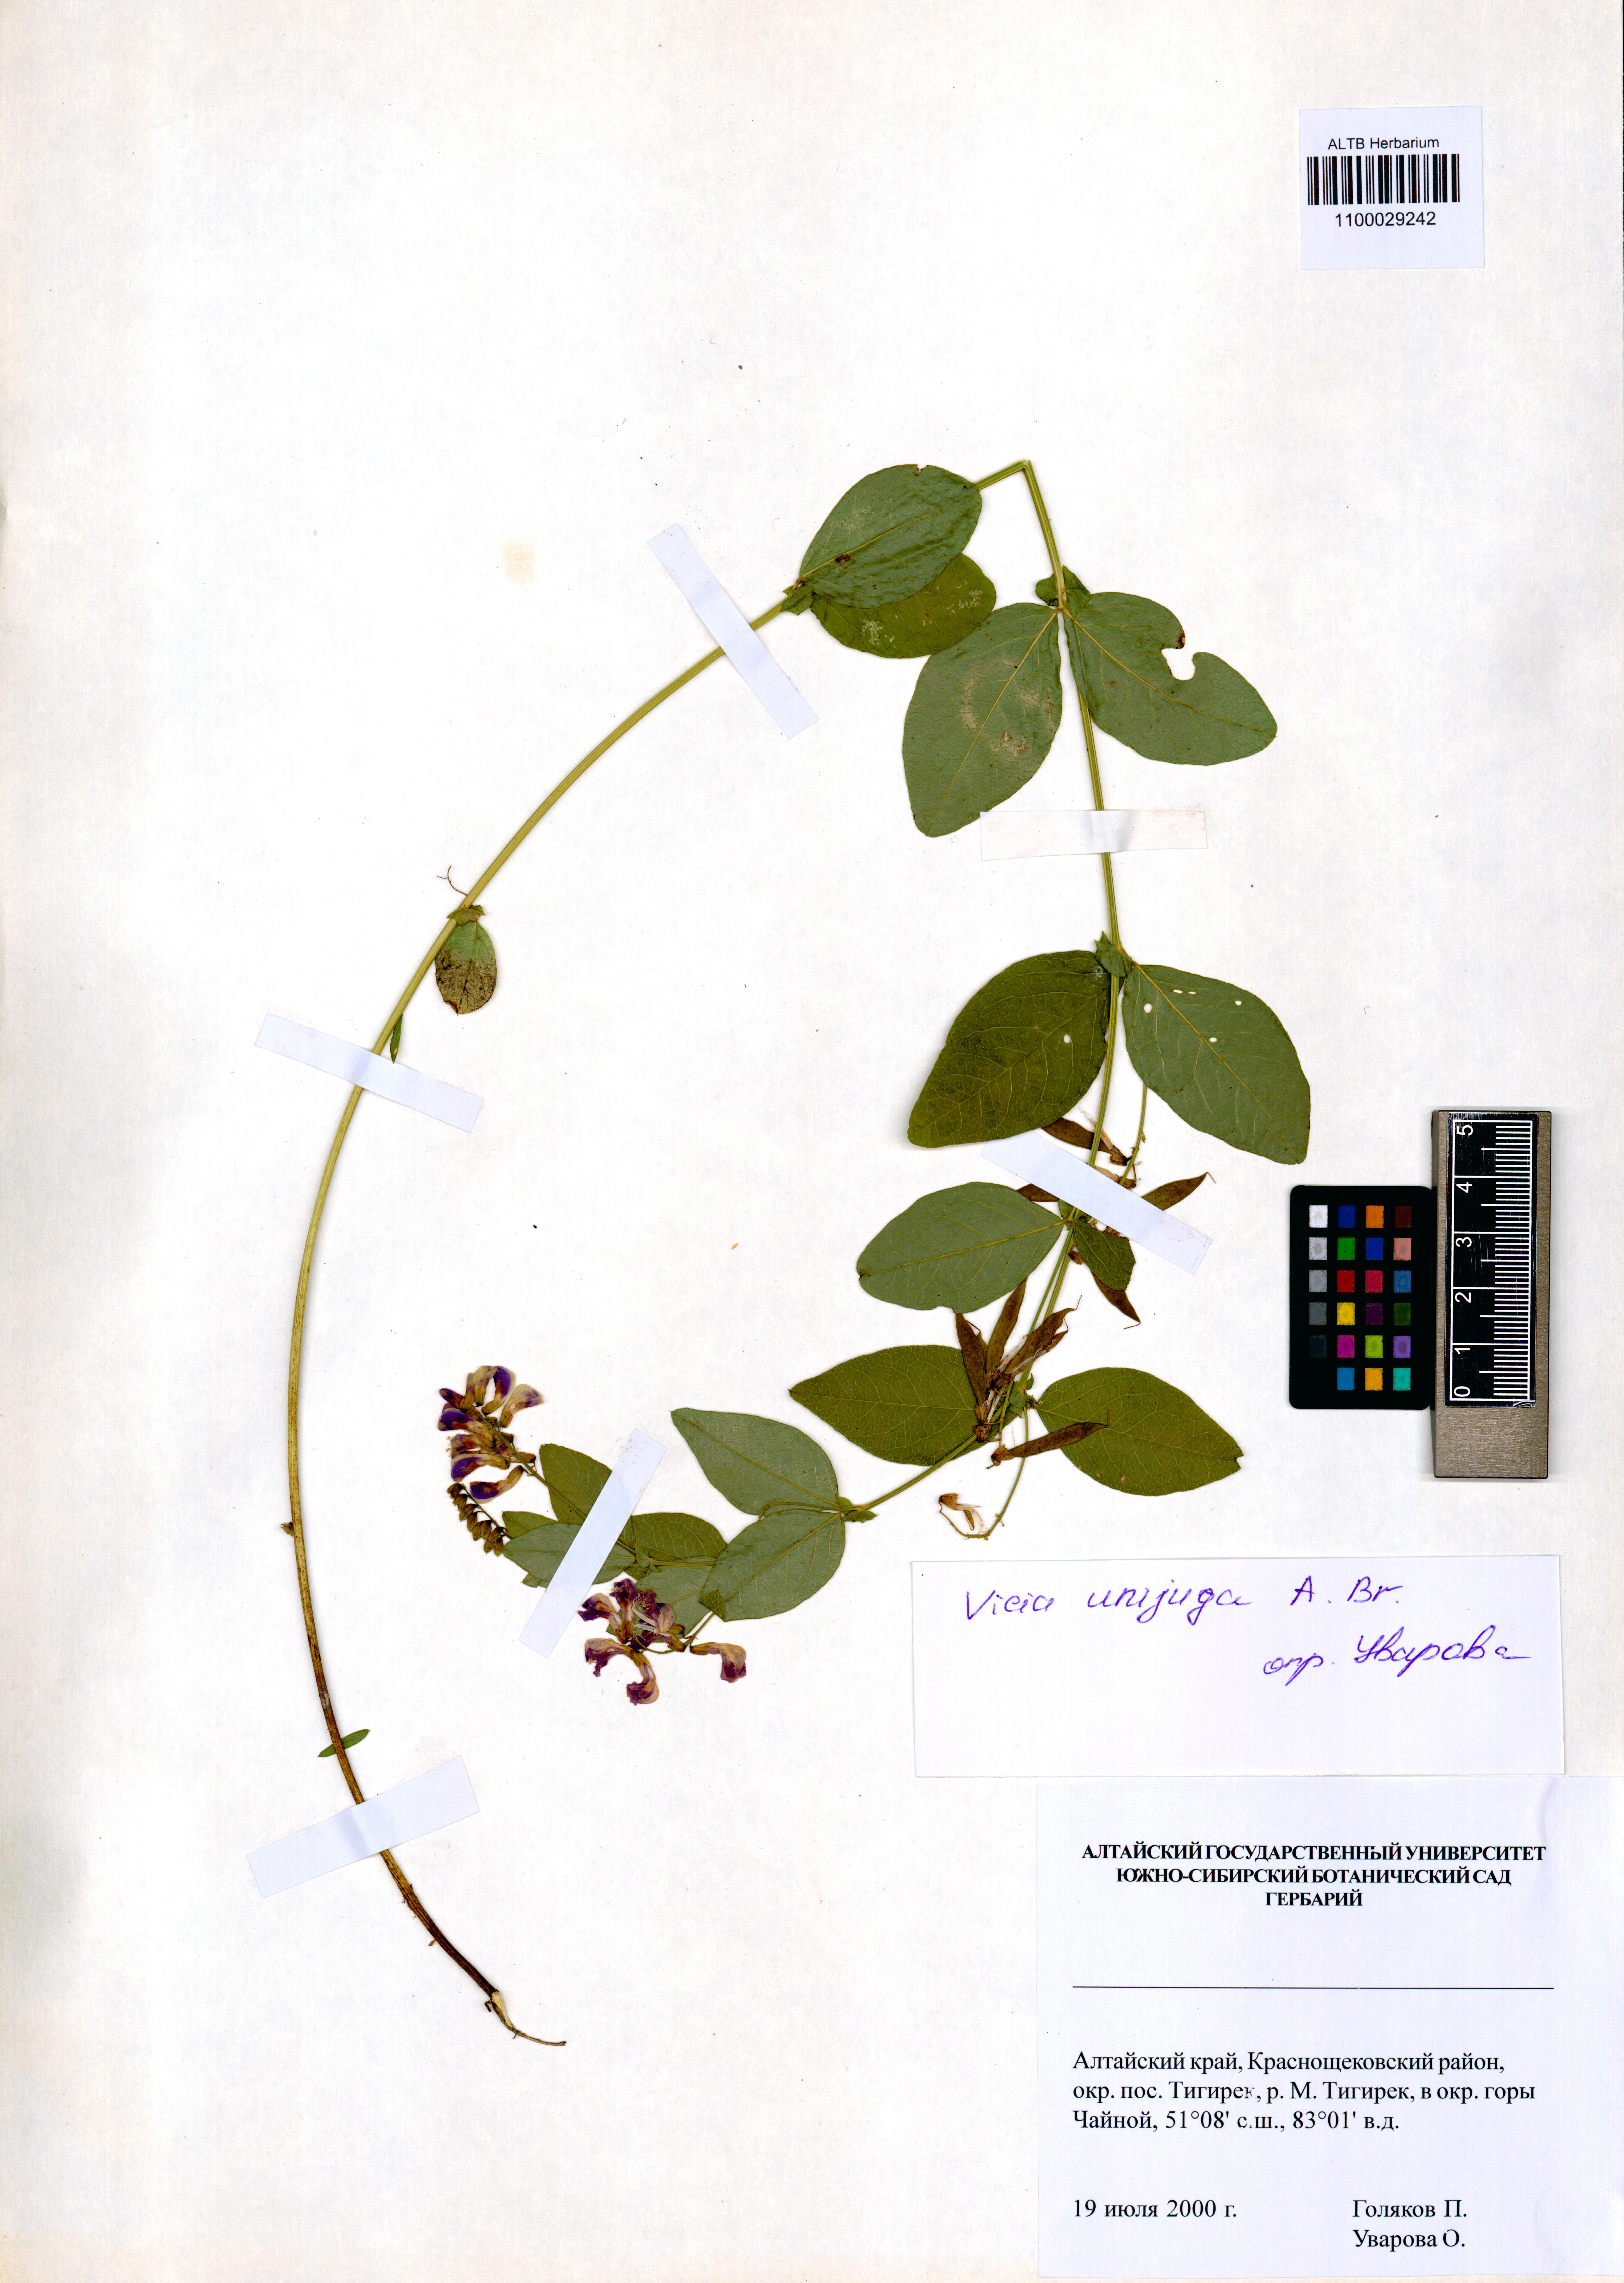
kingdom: Plantae
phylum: Tracheophyta
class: Magnoliopsida
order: Fabales
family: Fabaceae
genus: Vicia
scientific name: Vicia unijuga
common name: Two-leaf vetch
